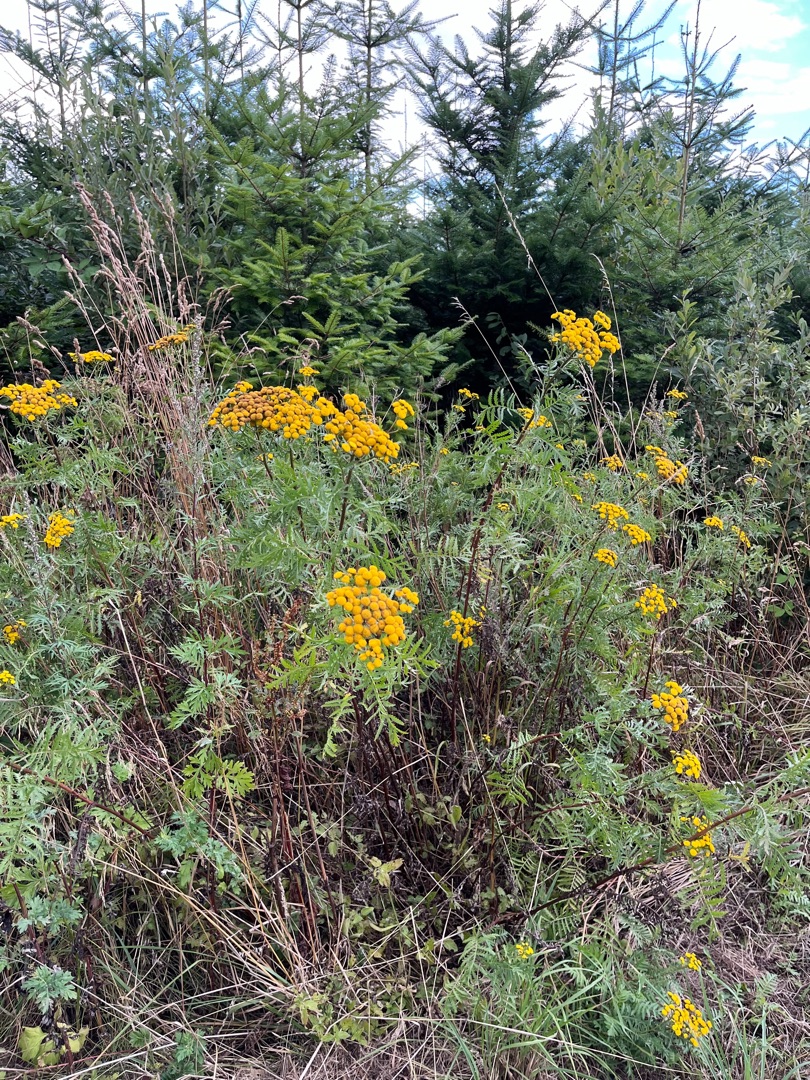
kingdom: Plantae
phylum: Tracheophyta
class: Magnoliopsida
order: Asterales
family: Asteraceae
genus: Tanacetum
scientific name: Tanacetum vulgare
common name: Rejnfan
